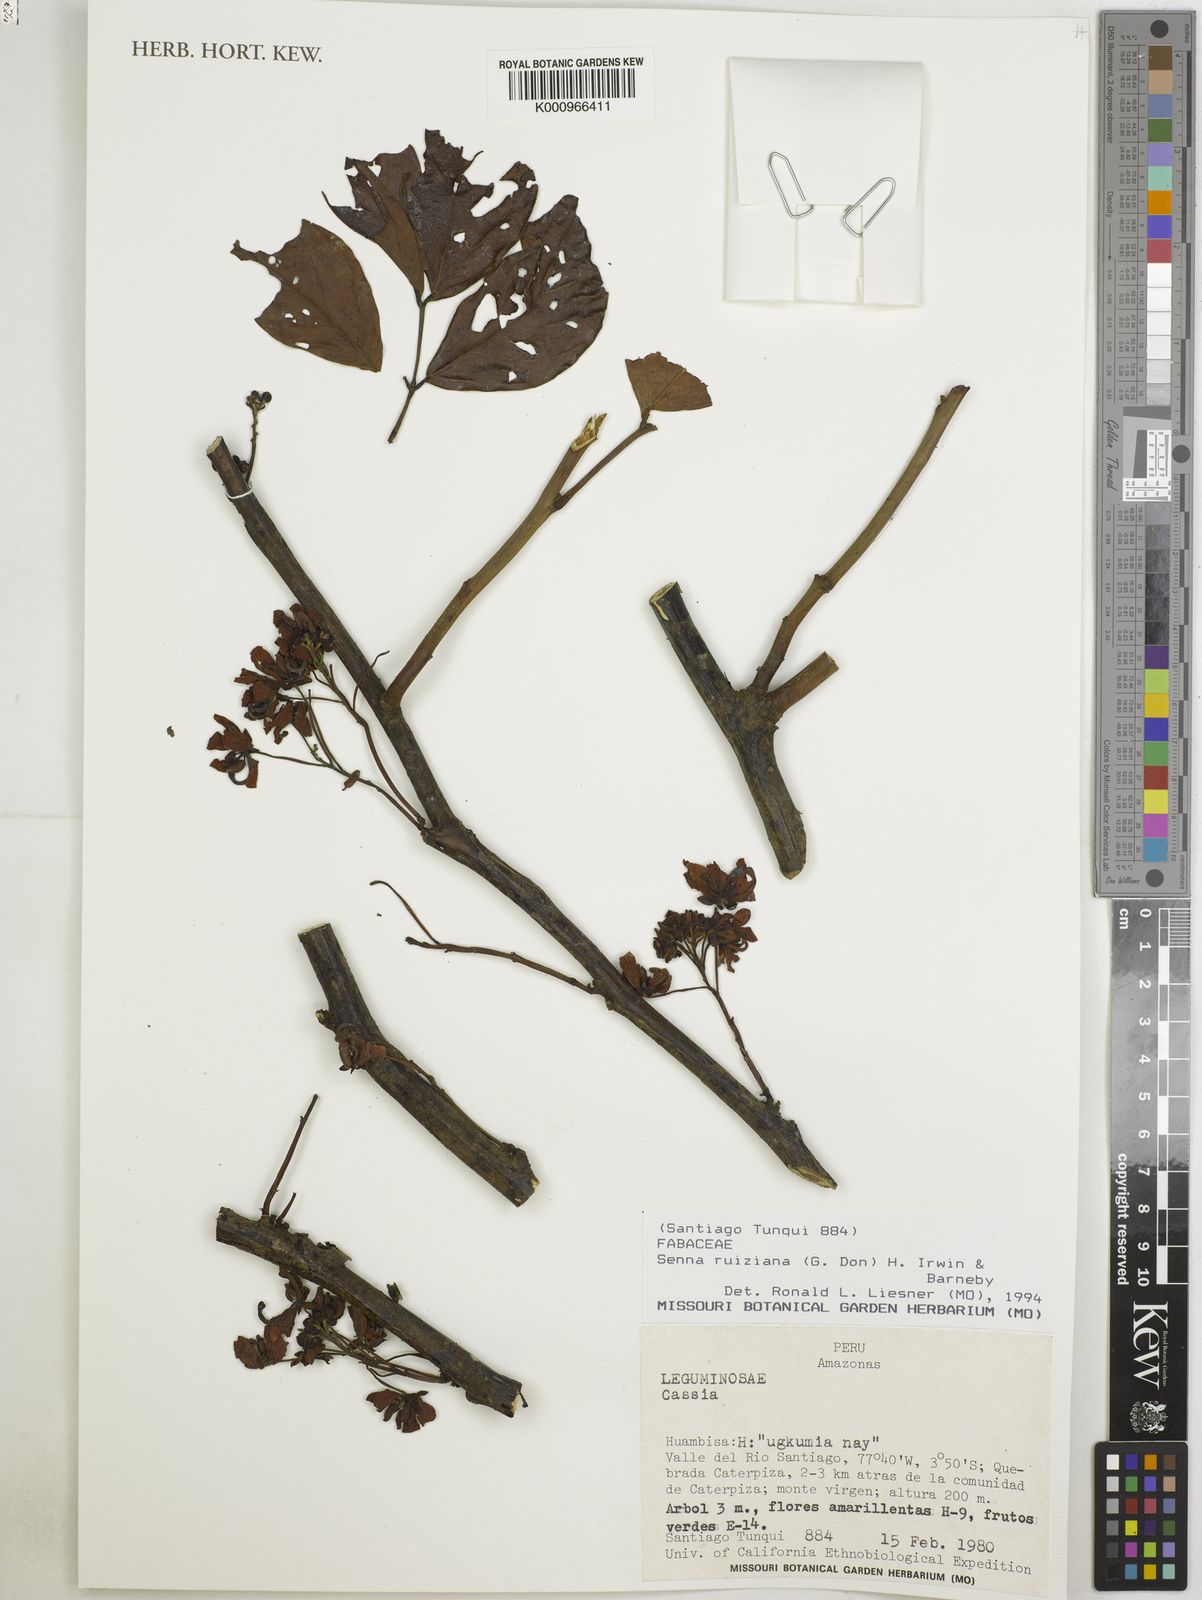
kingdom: Plantae
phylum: Tracheophyta
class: Magnoliopsida
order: Fabales
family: Fabaceae
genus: Senna
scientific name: Senna ruiziana
